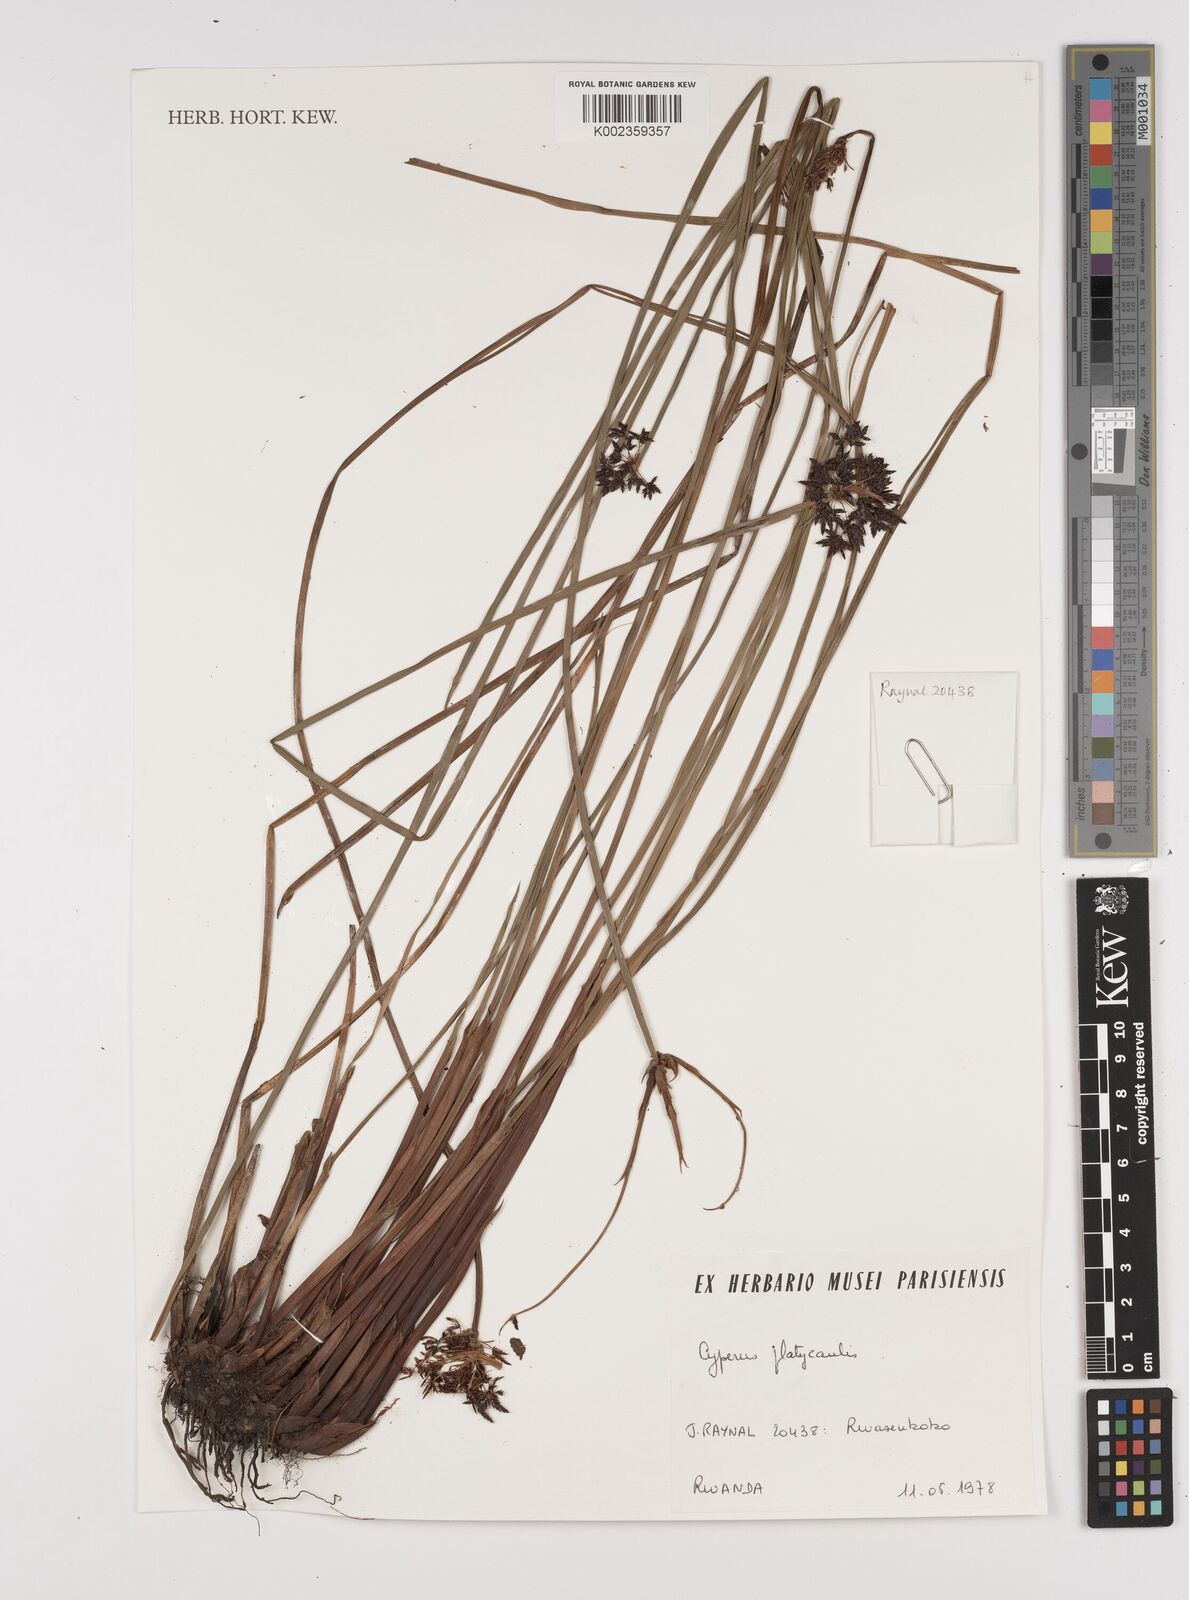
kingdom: Plantae
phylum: Tracheophyta
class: Liliopsida
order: Poales
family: Cyperaceae
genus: Cyperus
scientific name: Cyperus platycaulis
